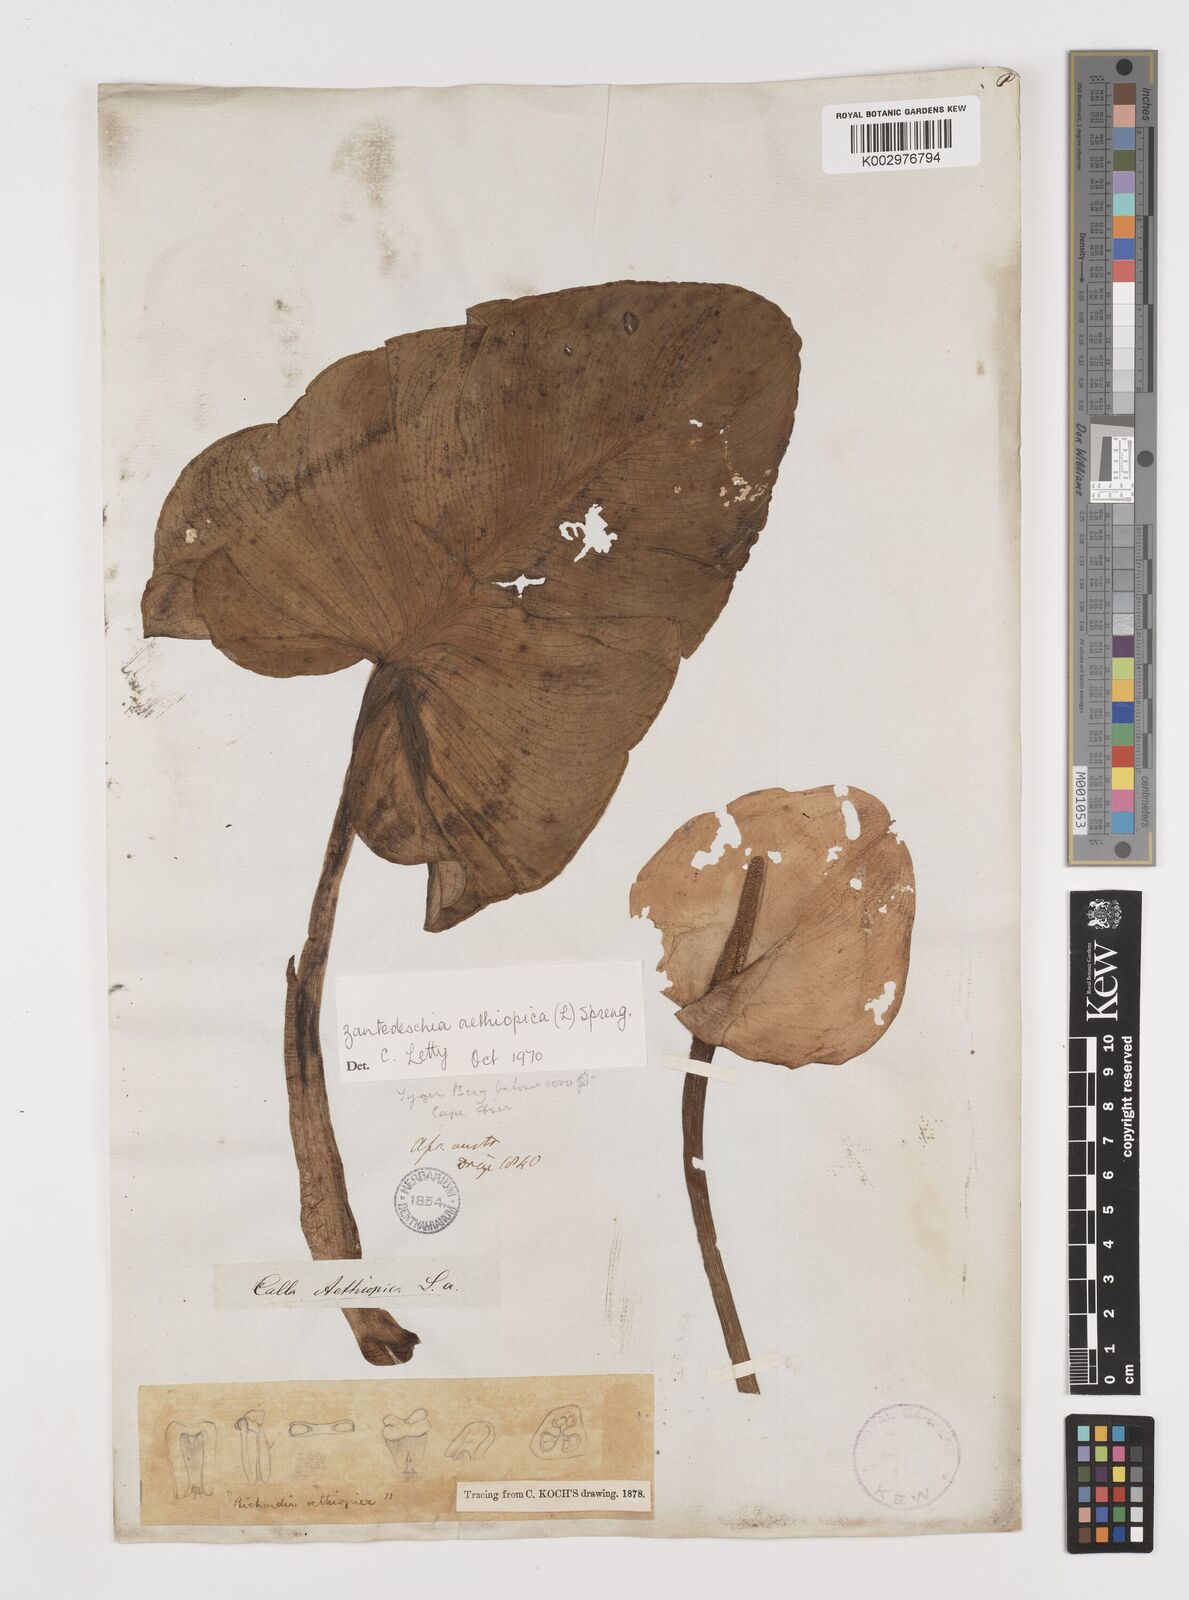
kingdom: Plantae
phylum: Tracheophyta
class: Liliopsida
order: Alismatales
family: Araceae
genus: Zantedeschia
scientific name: Zantedeschia aethiopica
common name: Altar-lily
